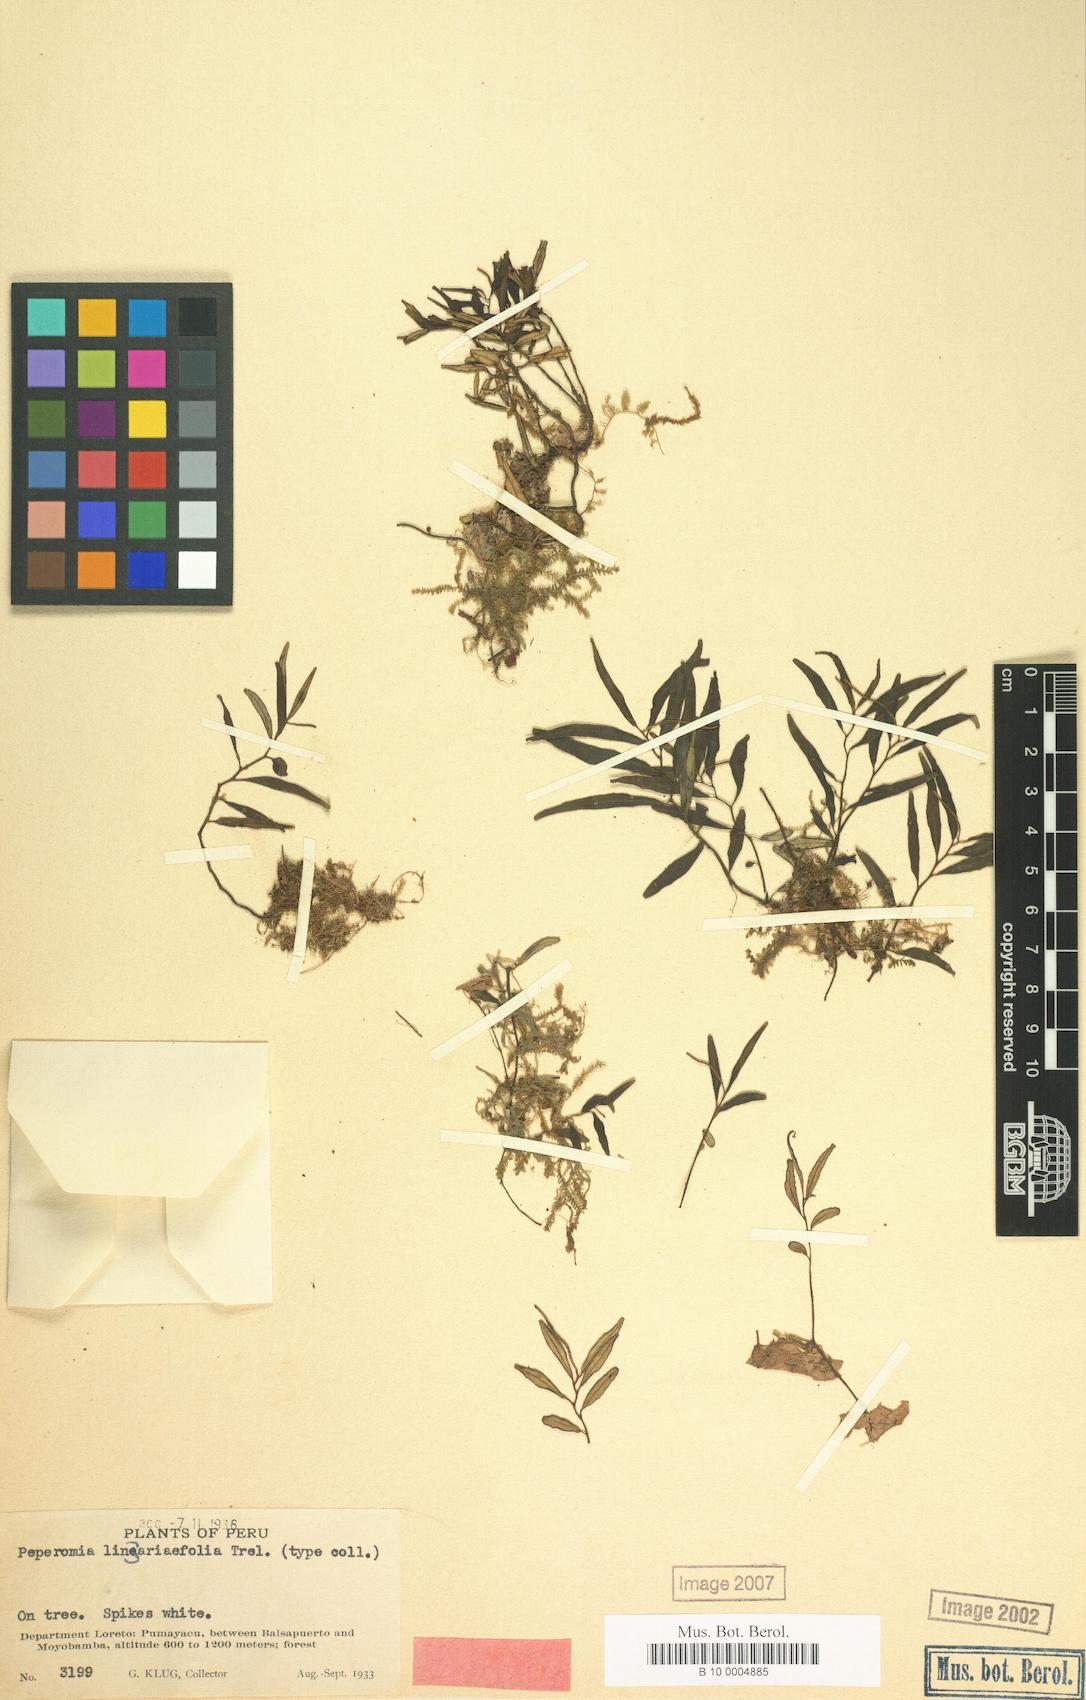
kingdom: Plantae
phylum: Tracheophyta
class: Magnoliopsida
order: Piperales
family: Piperaceae
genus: Peperomia
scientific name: Peperomia
